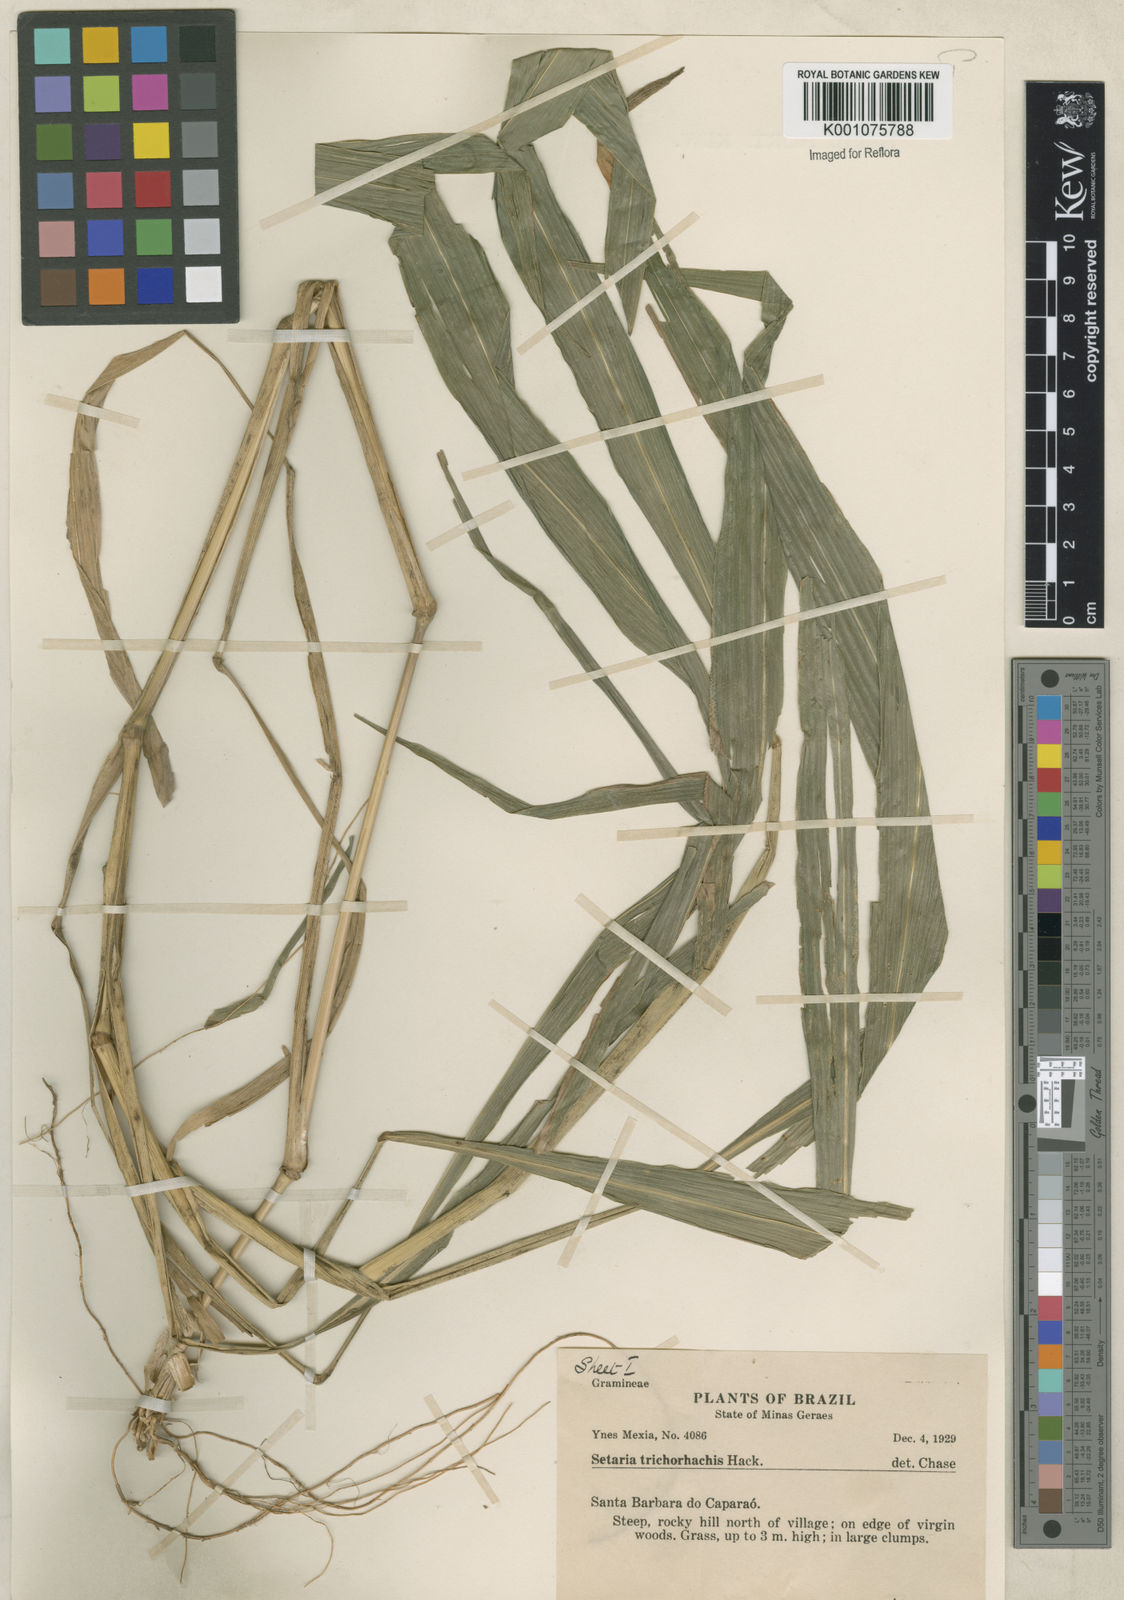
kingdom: Plantae
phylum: Tracheophyta
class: Liliopsida
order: Poales
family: Poaceae
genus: Setaria
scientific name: Setaria vulpiseta
